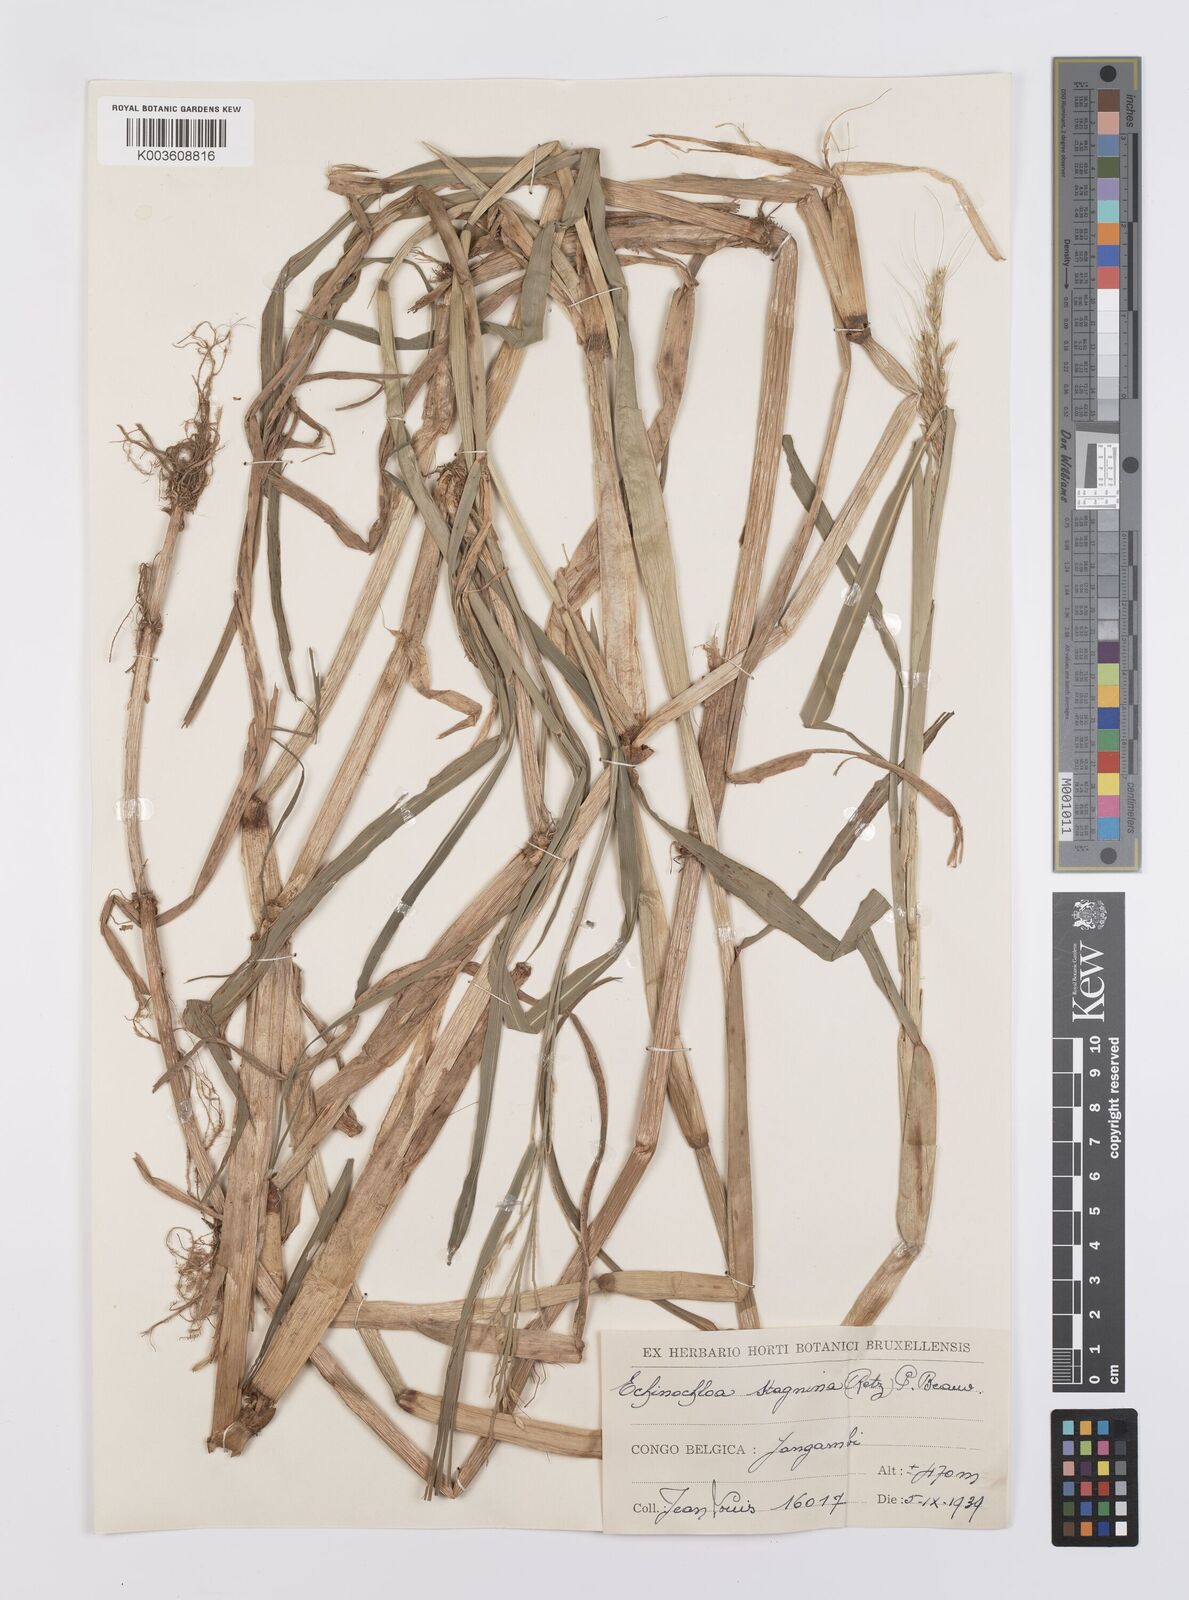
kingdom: Plantae
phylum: Tracheophyta
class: Liliopsida
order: Poales
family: Poaceae
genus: Echinochloa
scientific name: Echinochloa stagnina
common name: Burgu grass
